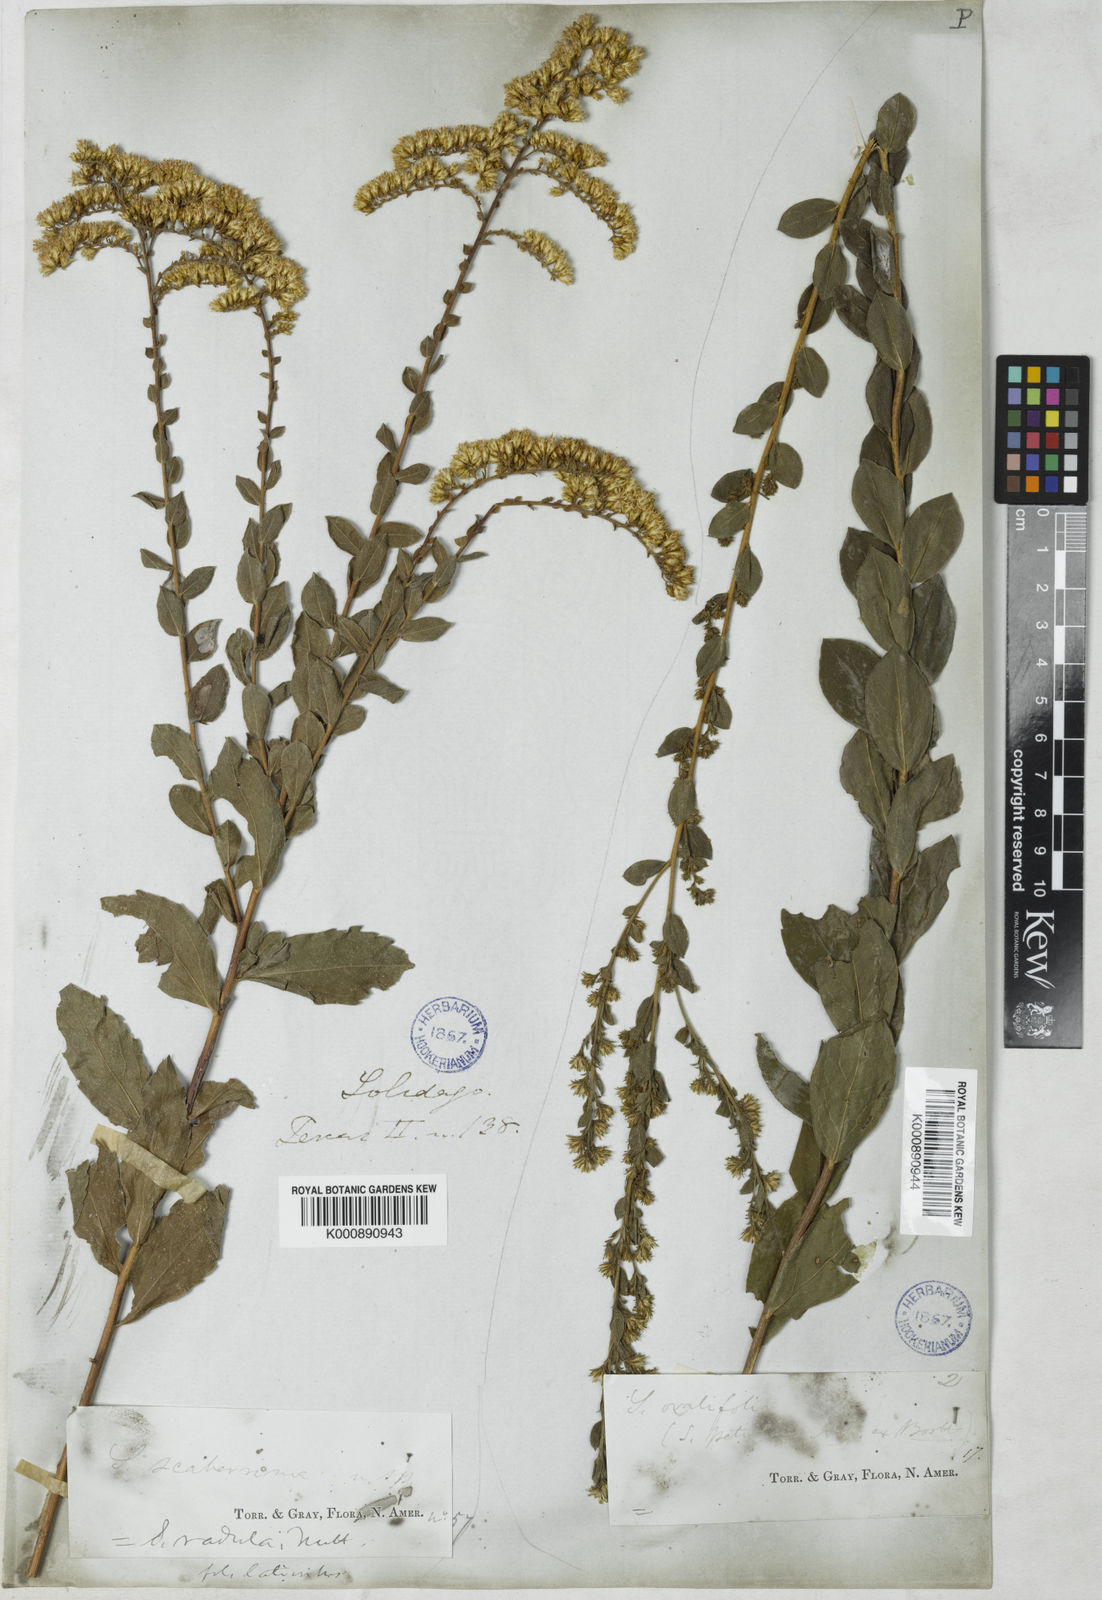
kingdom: Plantae
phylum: Tracheophyta
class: Magnoliopsida
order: Asterales
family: Asteraceae
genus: Solidago
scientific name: Solidago radula
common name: Western rough goldenrod
